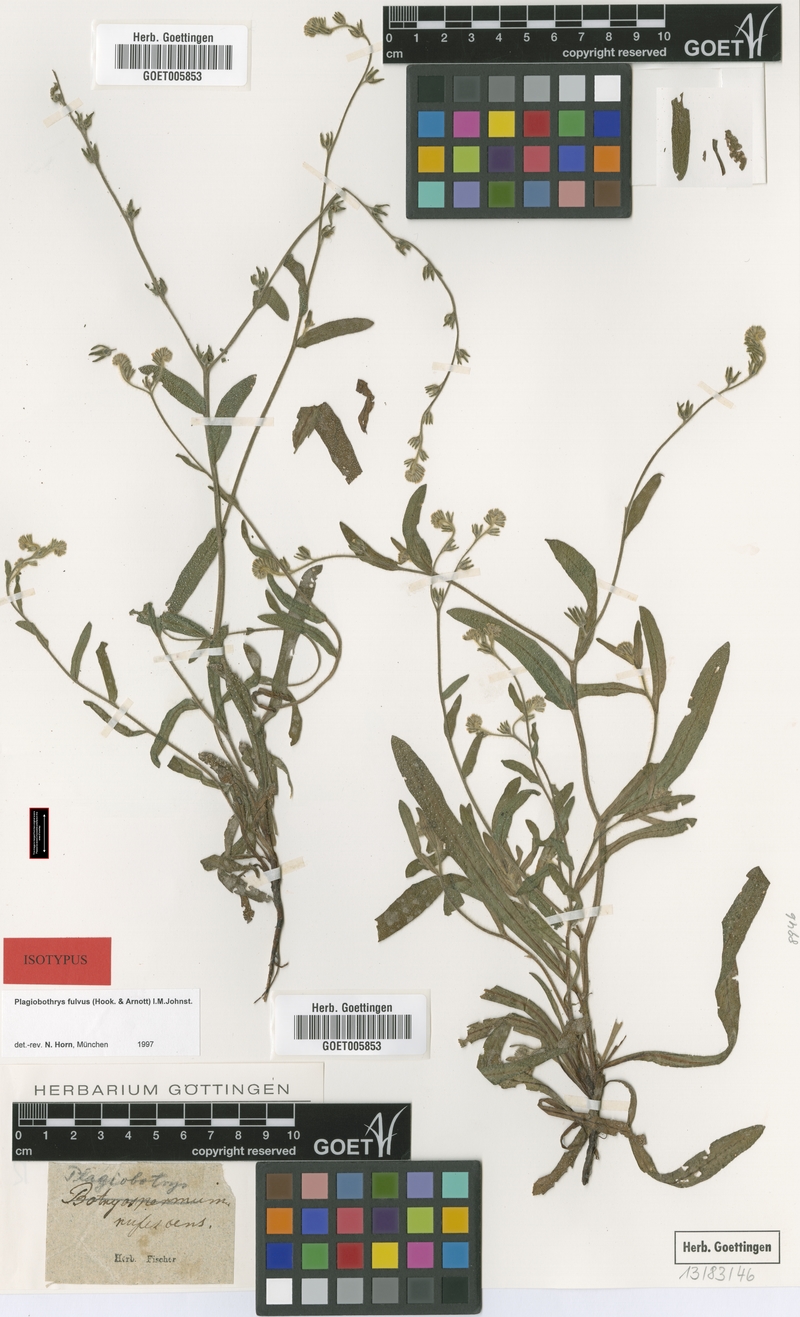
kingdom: Plantae
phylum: Tracheophyta
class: Magnoliopsida
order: Boraginales
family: Boraginaceae
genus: Plagiobothrys
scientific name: Plagiobothrys fulvus
